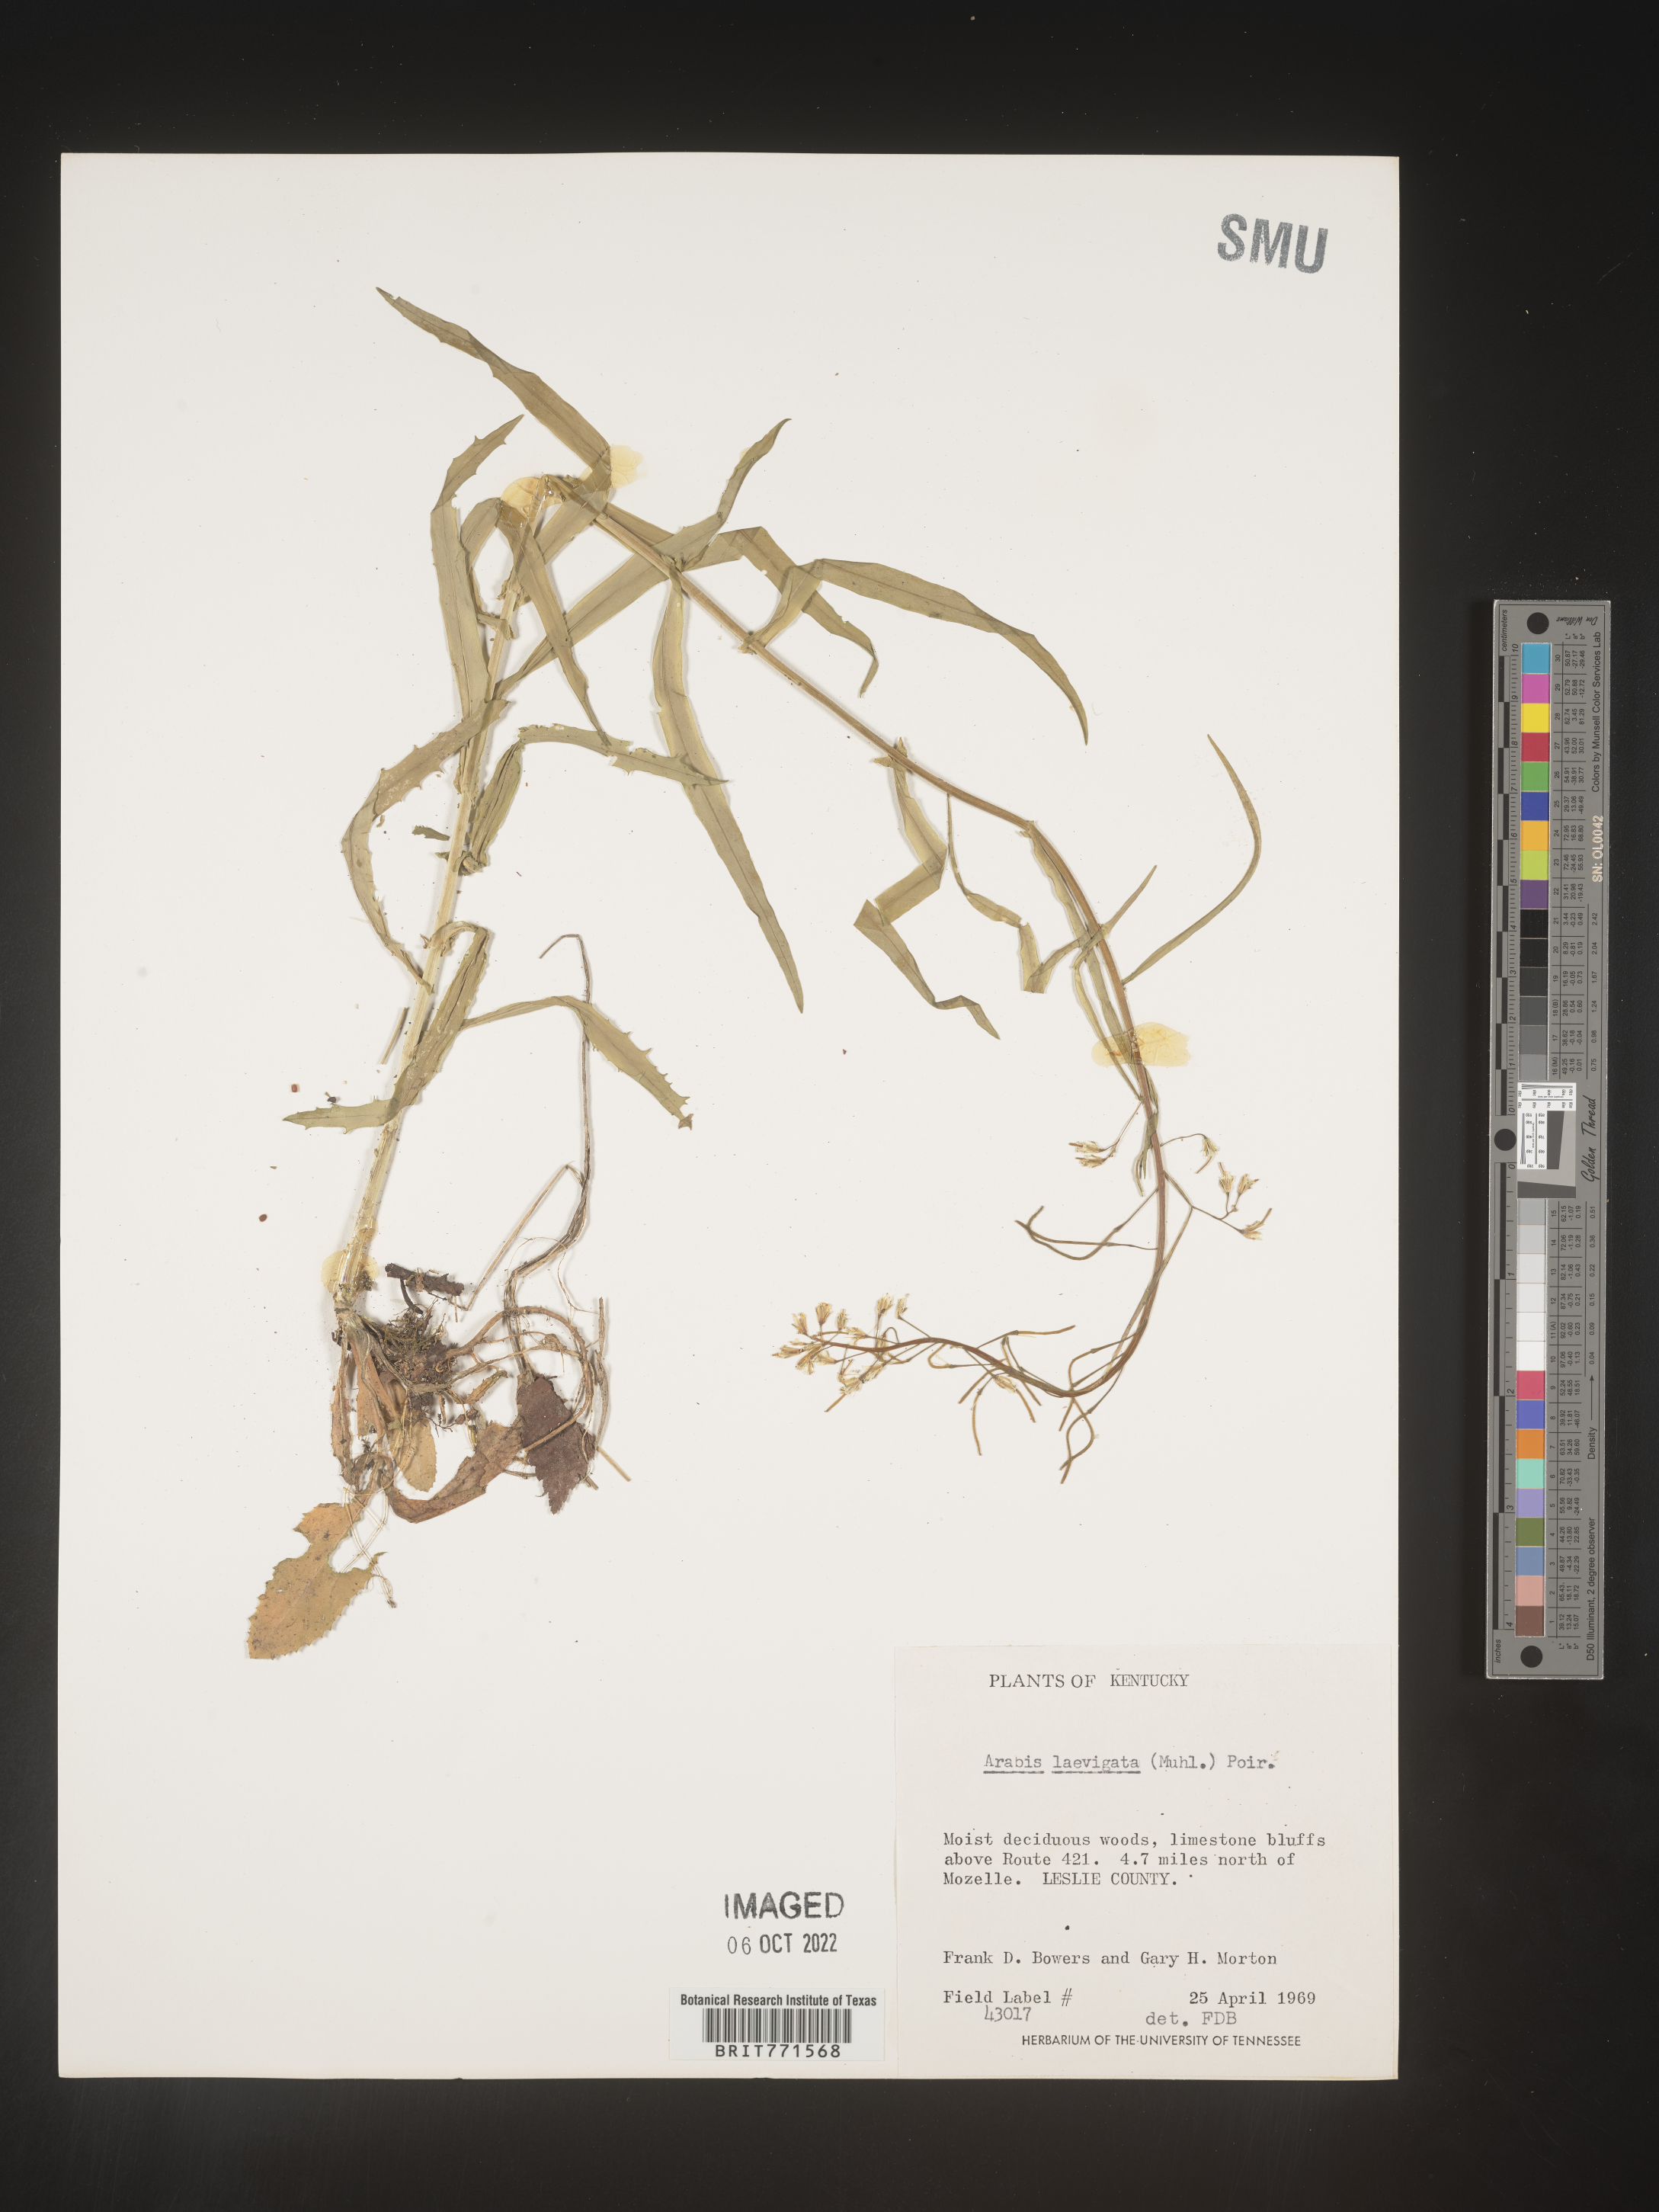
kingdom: Plantae
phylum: Tracheophyta
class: Magnoliopsida
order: Brassicales
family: Brassicaceae
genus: Arabis
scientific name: Arabis laevigata
